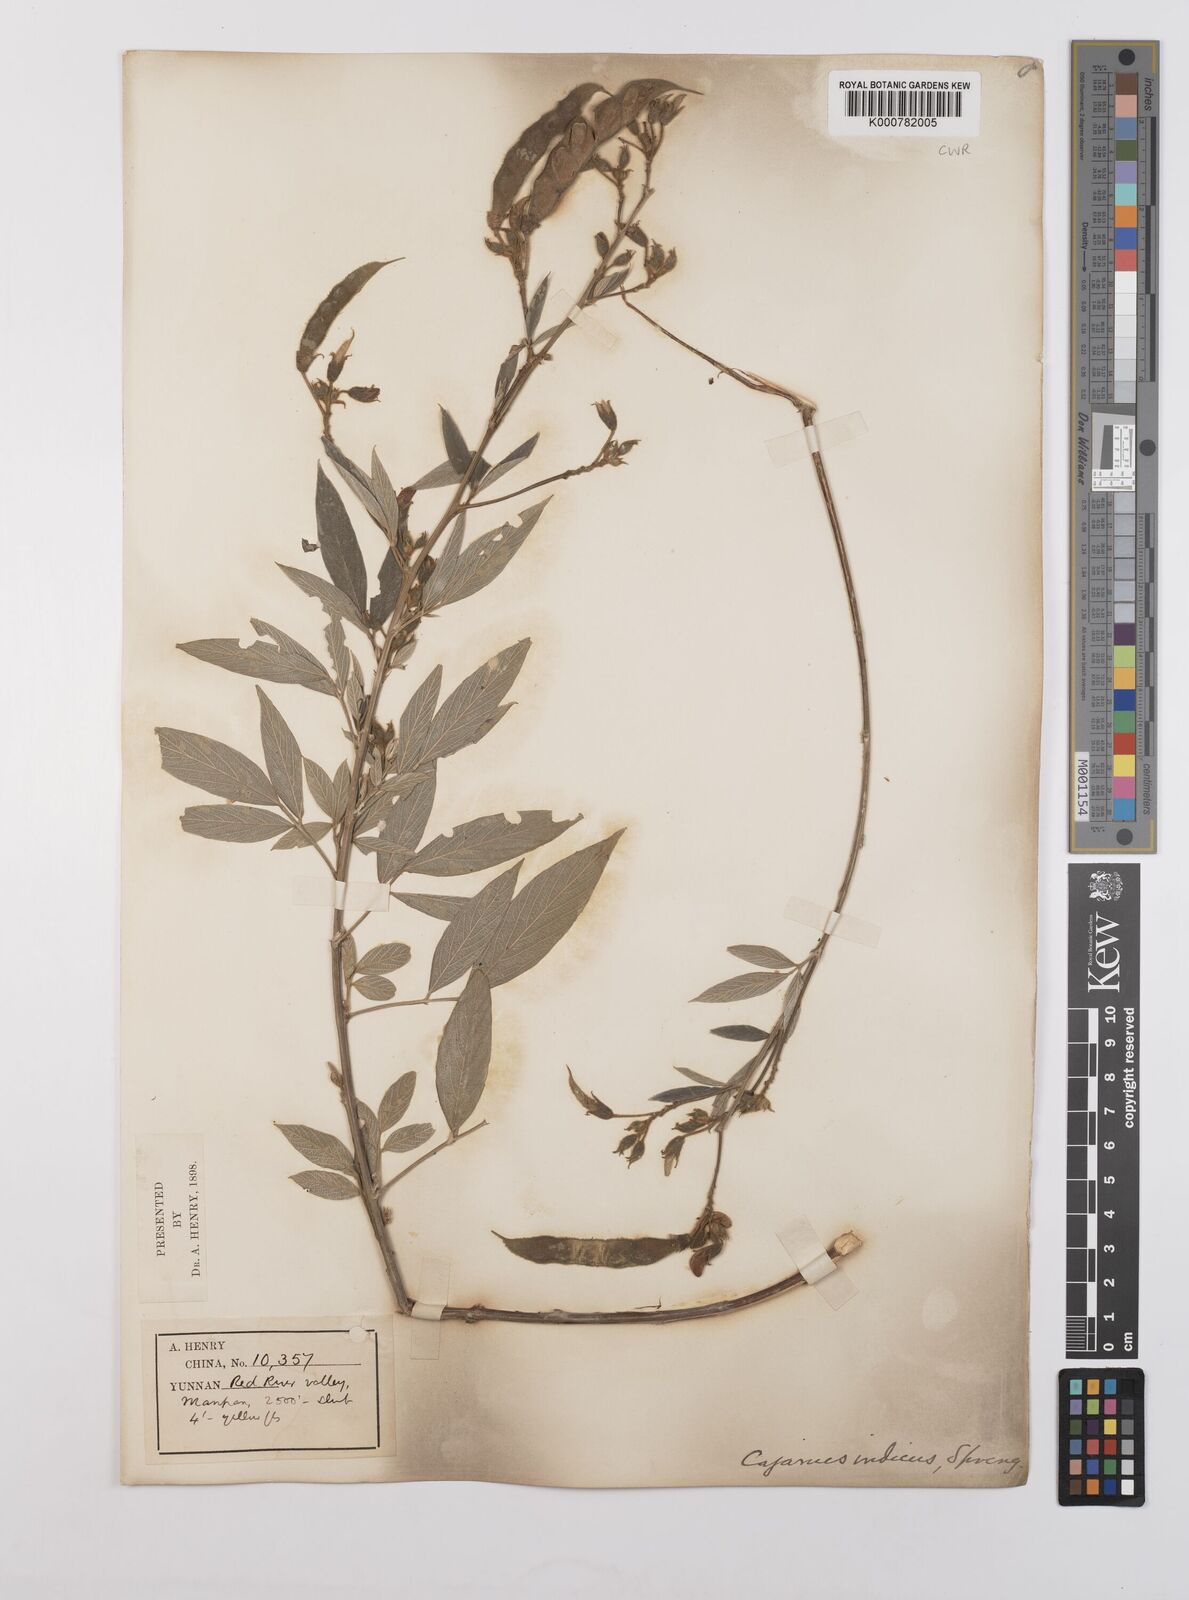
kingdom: Plantae
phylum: Tracheophyta
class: Magnoliopsida
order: Fabales
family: Fabaceae
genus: Cajanus
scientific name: Cajanus cajan
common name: Pigeonpea
